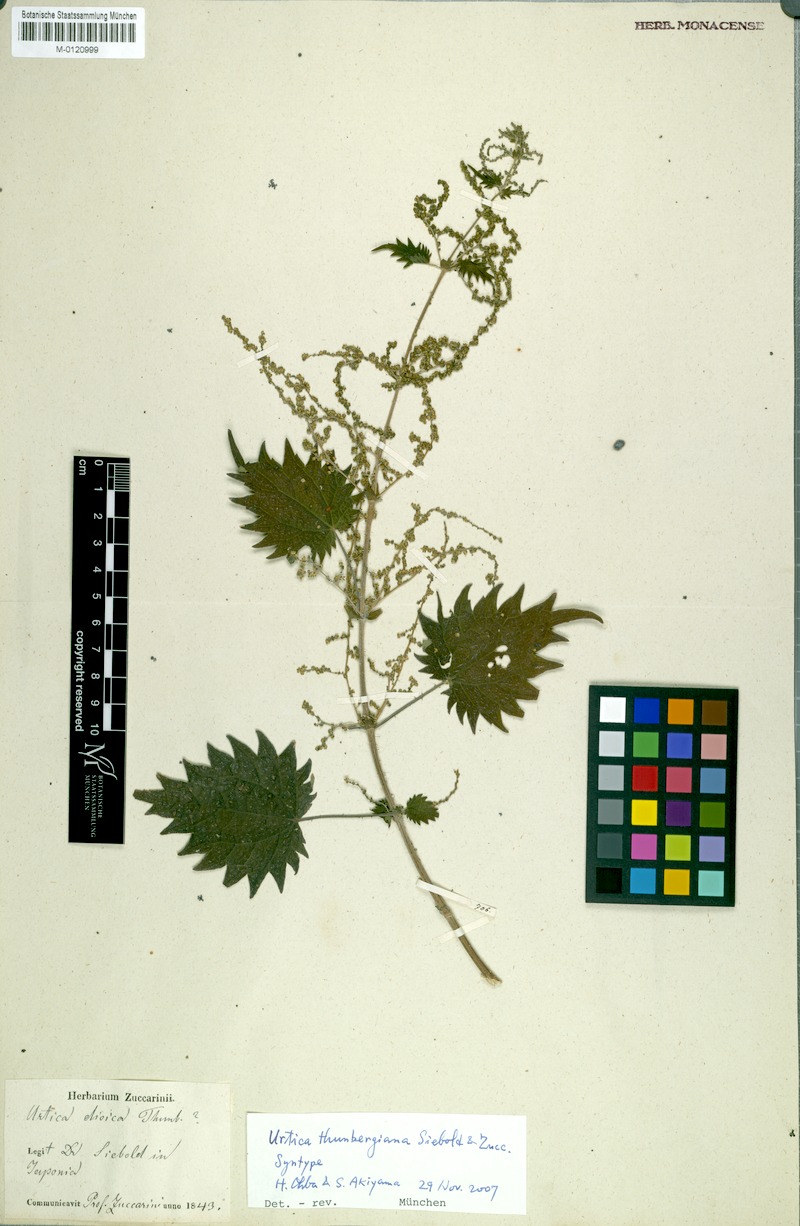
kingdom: Plantae
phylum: Tracheophyta
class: Magnoliopsida
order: Rosales
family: Urticaceae
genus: Urtica
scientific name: Urtica thunbergiana
